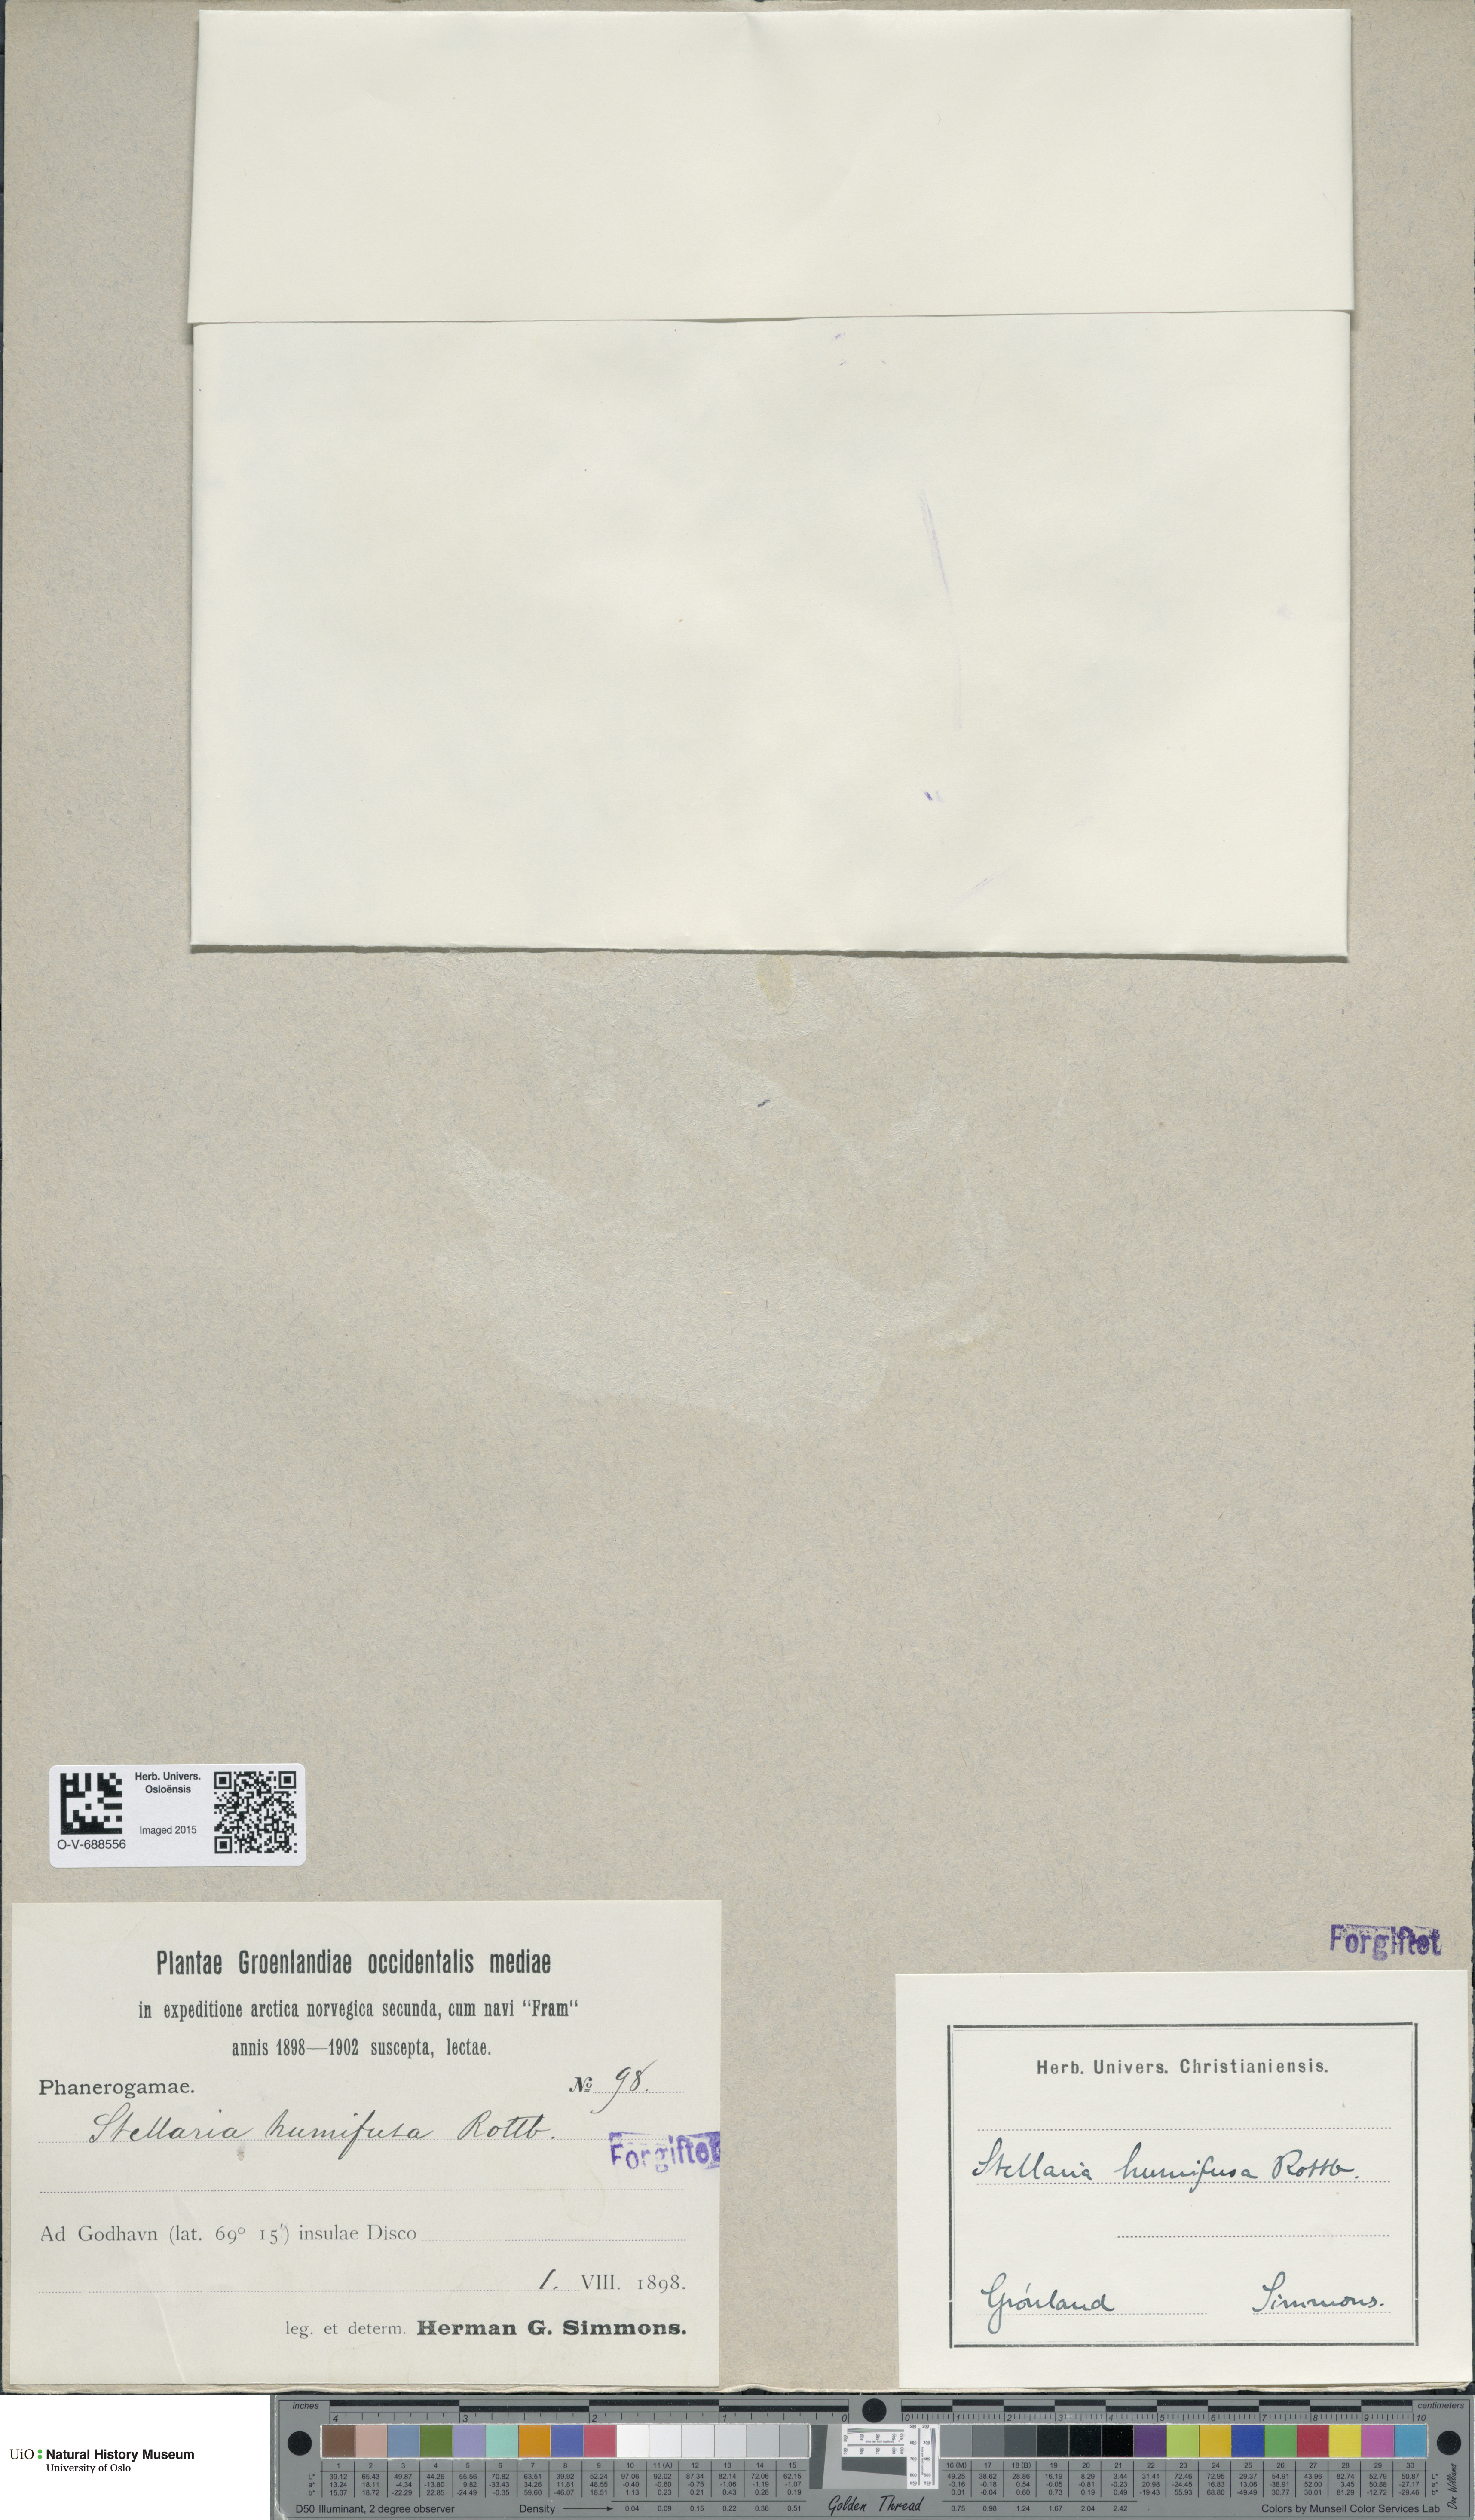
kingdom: Plantae
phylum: Tracheophyta
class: Magnoliopsida
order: Caryophyllales
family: Caryophyllaceae
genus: Stellaria
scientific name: Stellaria humifusa
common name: Creeping starwort
